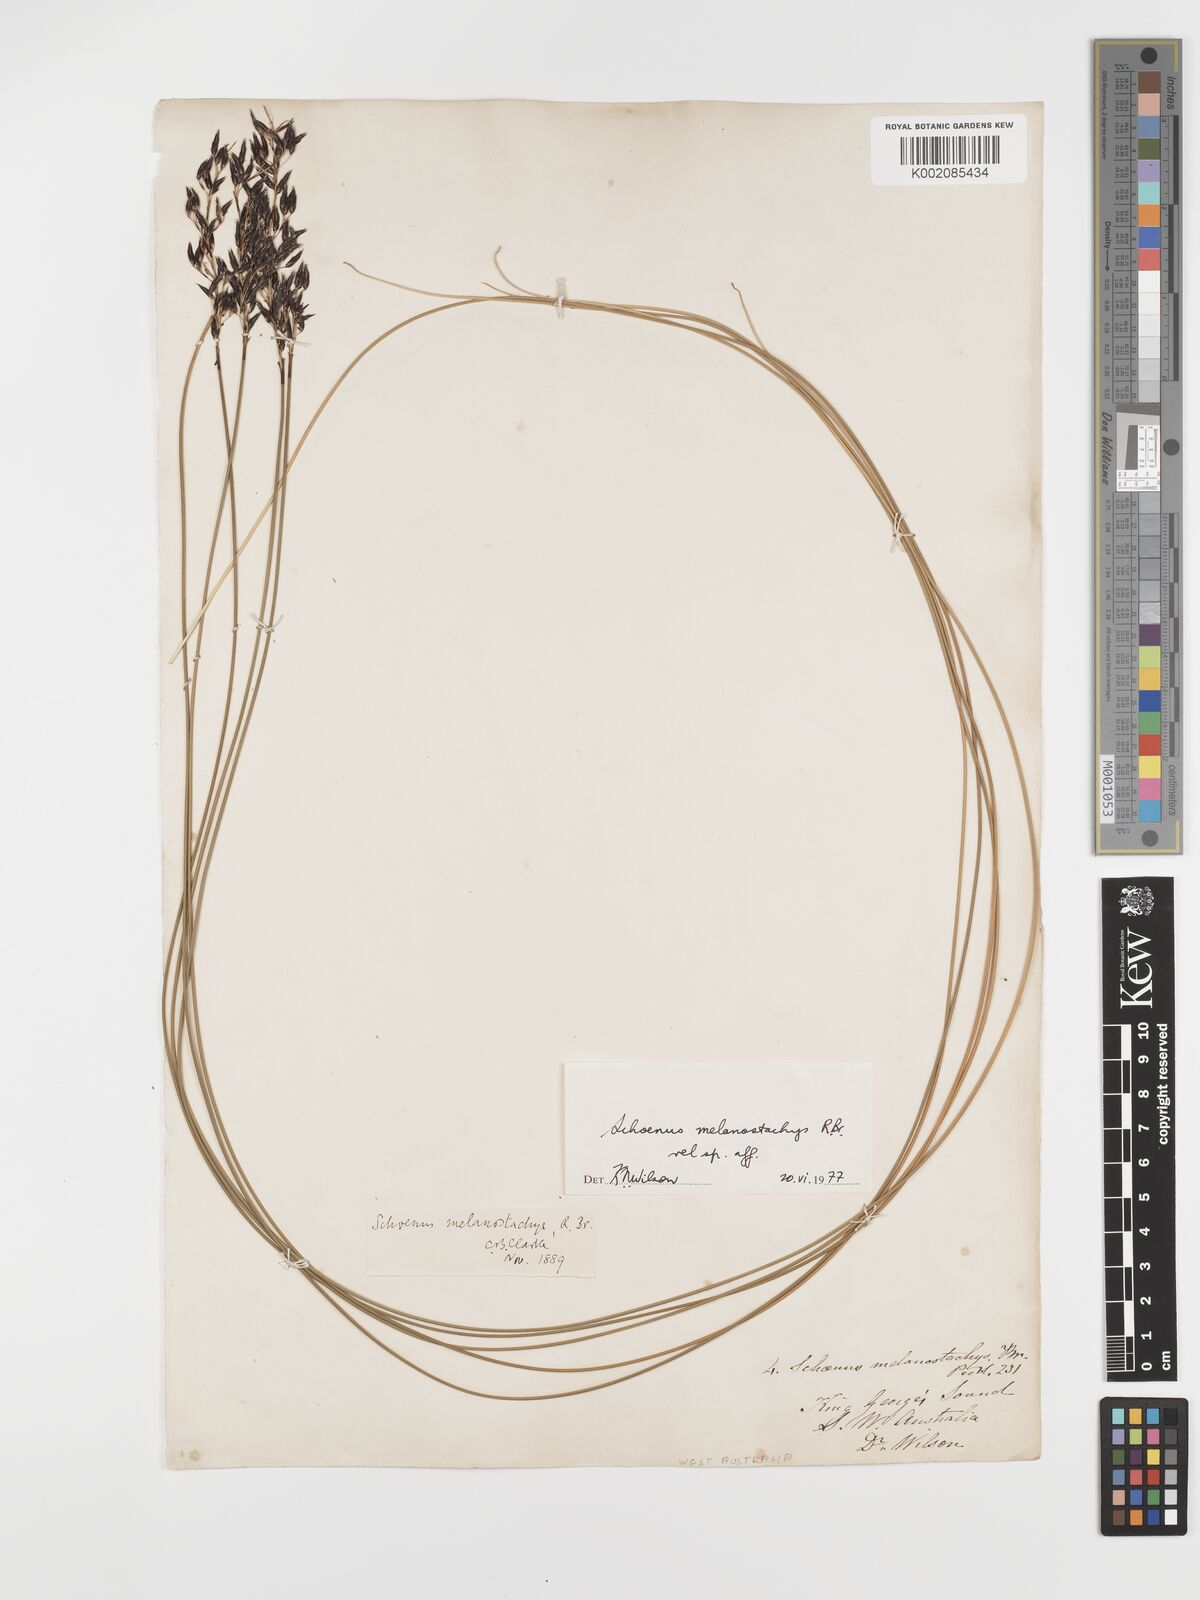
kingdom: Plantae
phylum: Tracheophyta
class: Liliopsida
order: Poales
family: Cyperaceae
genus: Schoenus
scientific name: Schoenus melanostachys
